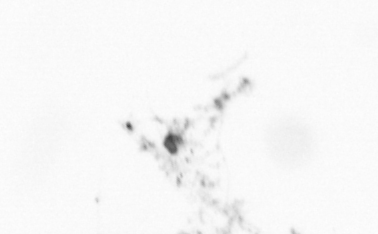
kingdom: Chromista
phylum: Ochrophyta
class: Bacillariophyceae
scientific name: Bacillariophyceae
